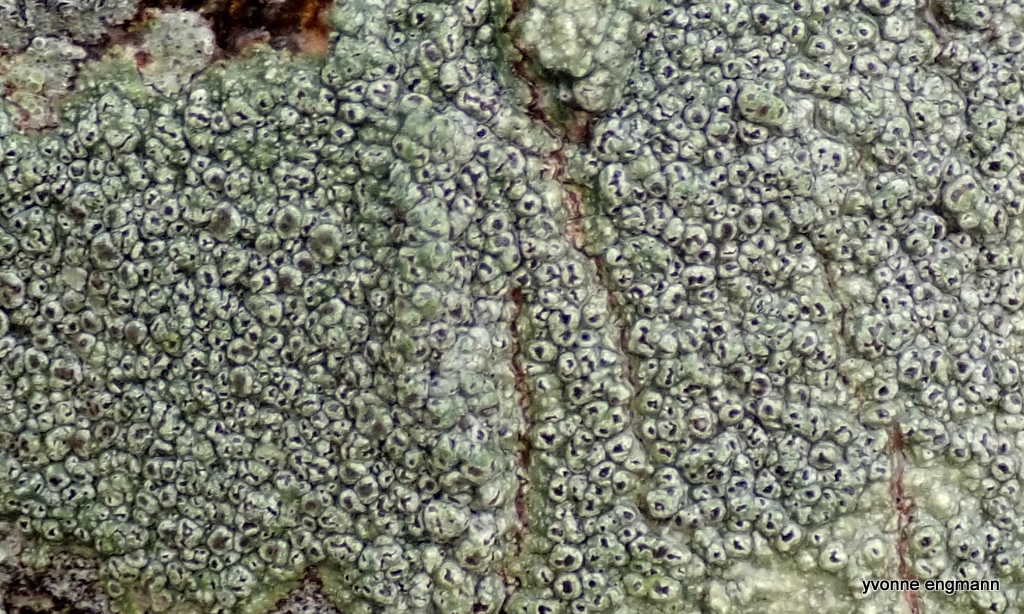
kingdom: Fungi
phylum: Ascomycota
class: Lecanoromycetes
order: Pertusariales
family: Pertusariaceae
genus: Pertusaria
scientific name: Pertusaria hymenea
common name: åben prikvortelav
